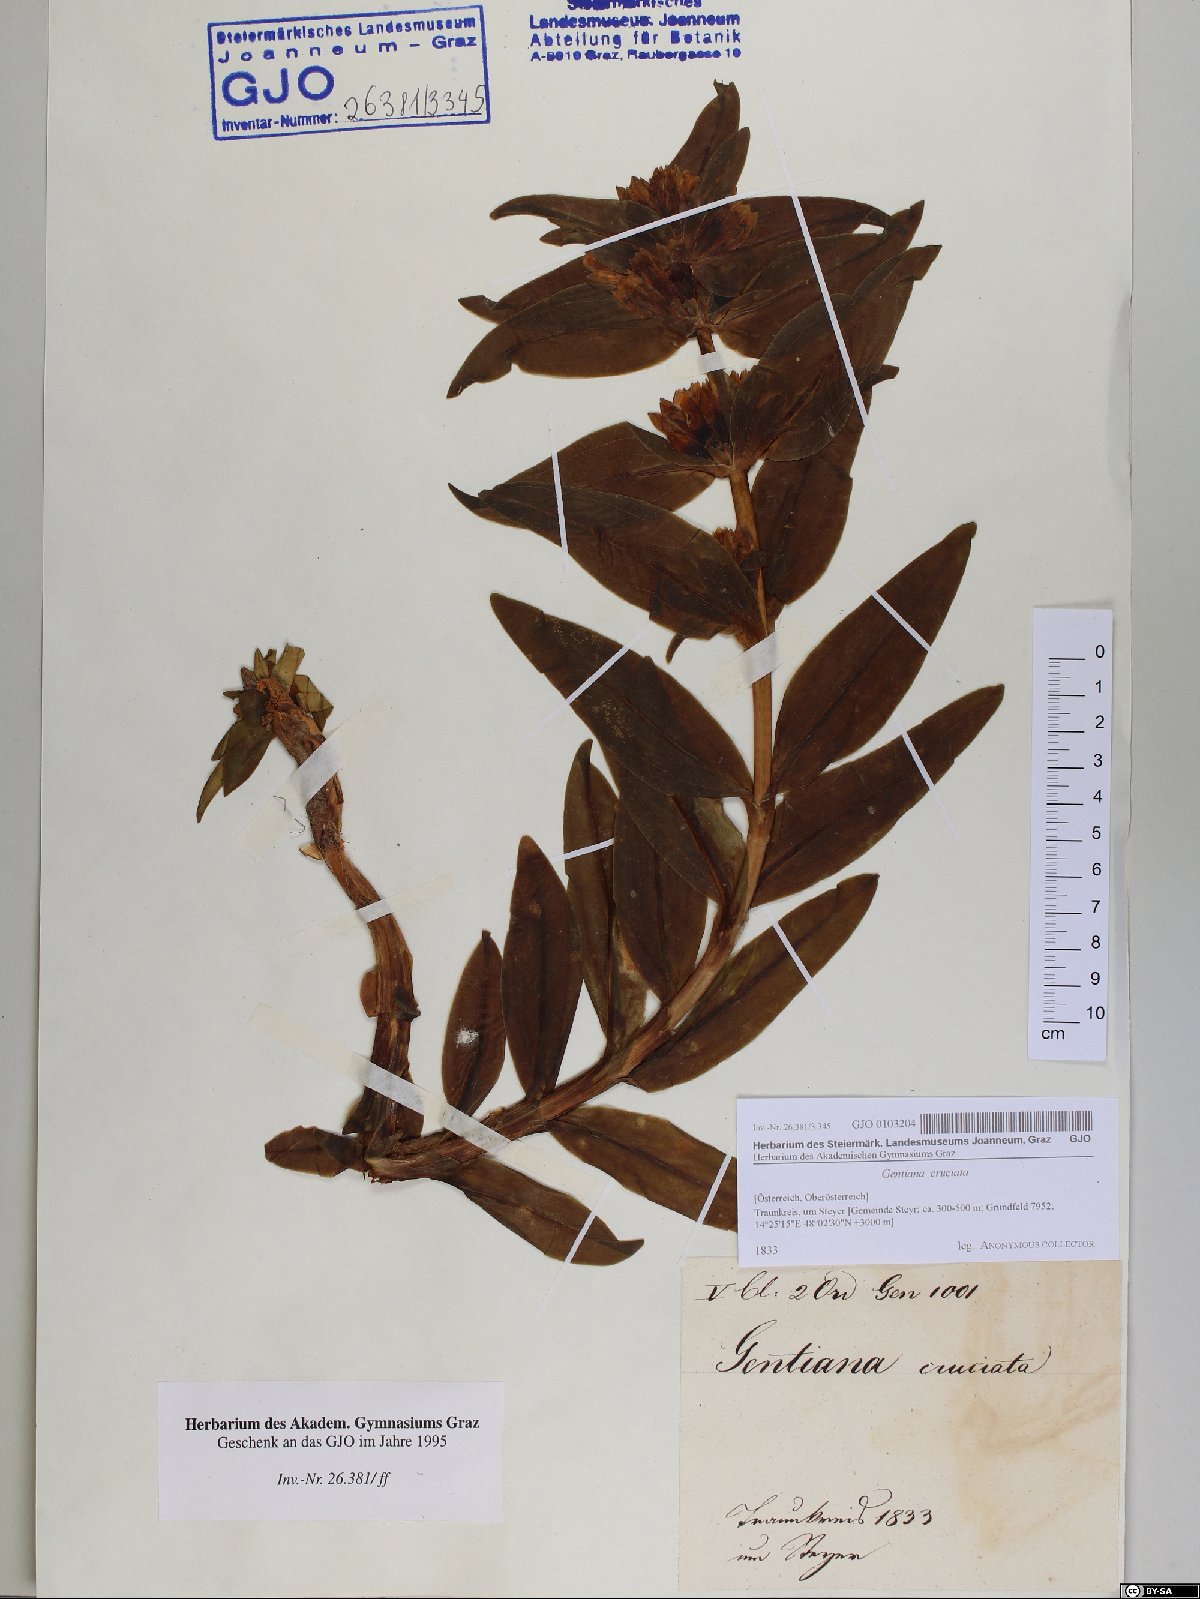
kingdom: Plantae
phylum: Tracheophyta
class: Magnoliopsida
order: Gentianales
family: Gentianaceae
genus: Gentiana
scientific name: Gentiana cruciata
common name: Cross gentian
